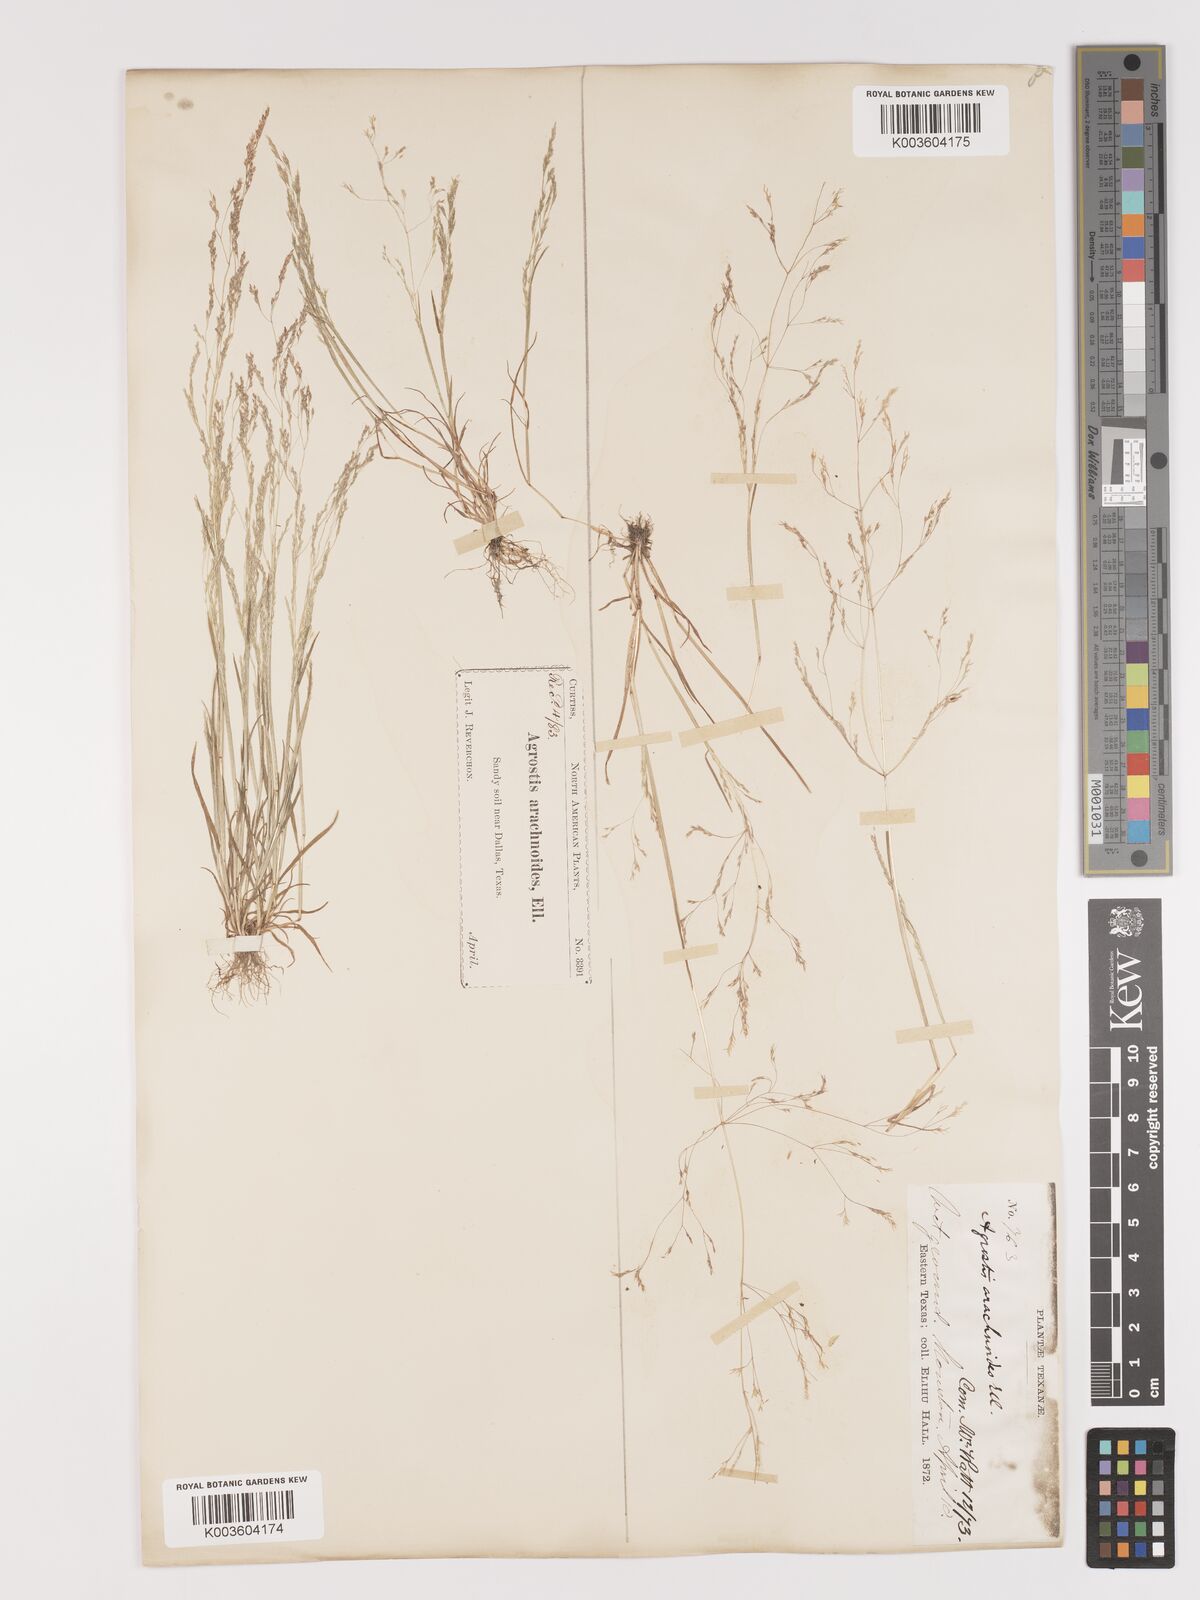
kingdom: Plantae
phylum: Tracheophyta
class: Liliopsida
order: Poales
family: Poaceae
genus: Agrostis
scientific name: Agrostis elliottiana
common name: Elliott's bent
